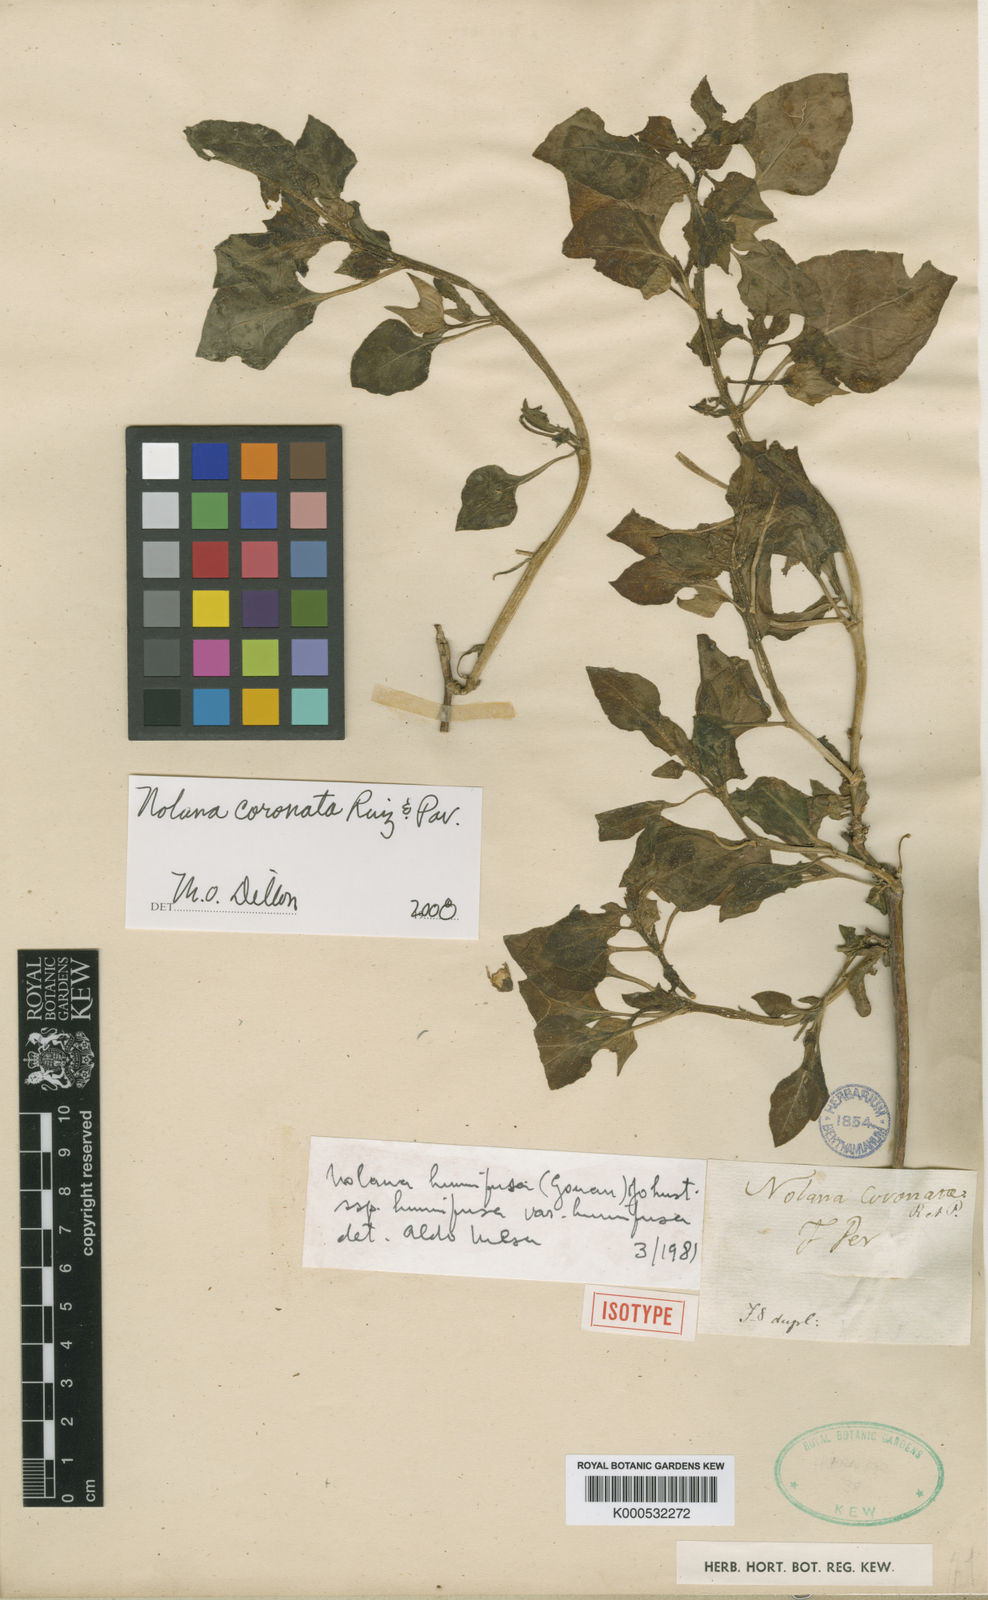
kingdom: Plantae
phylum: Tracheophyta
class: Magnoliopsida
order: Solanales
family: Solanaceae
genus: Nolana
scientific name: Nolana humifusa
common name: Trailing chilean-bellflower
